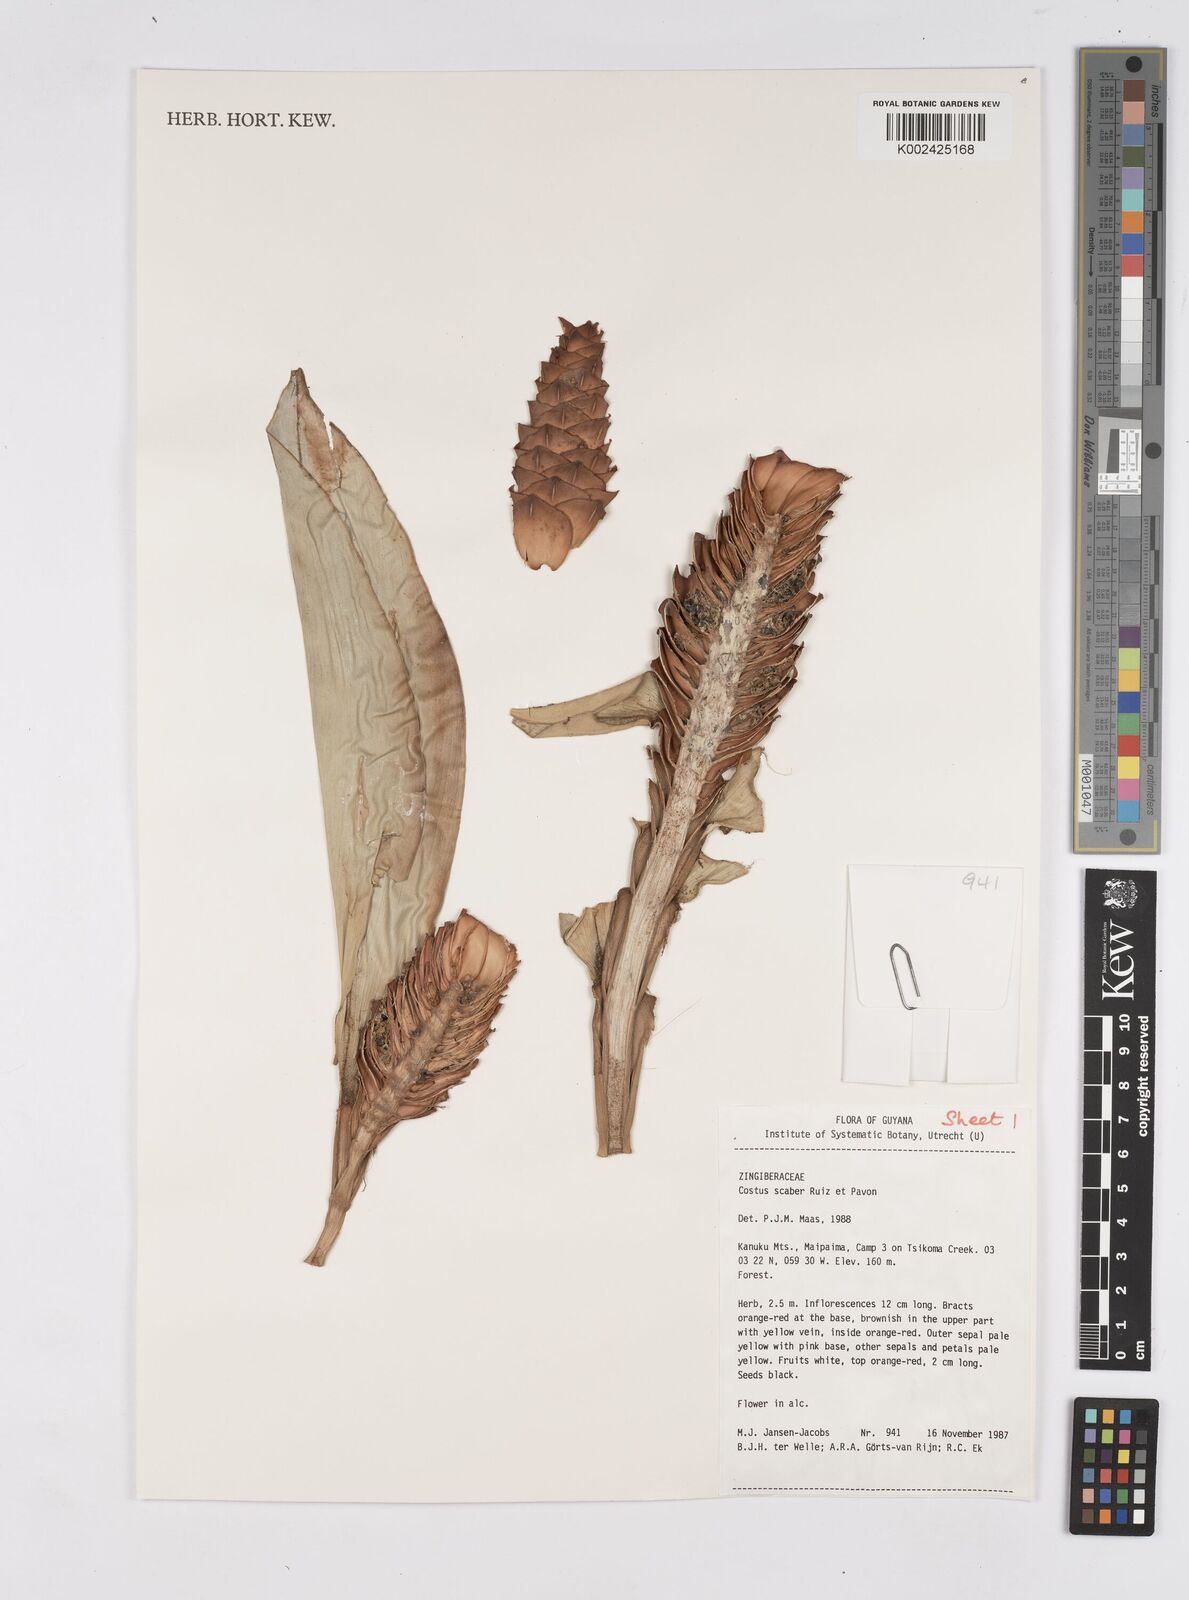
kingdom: Plantae
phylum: Tracheophyta
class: Liliopsida
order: Zingiberales
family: Costaceae
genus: Costus
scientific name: Costus scaber
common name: Spiral head ginger
